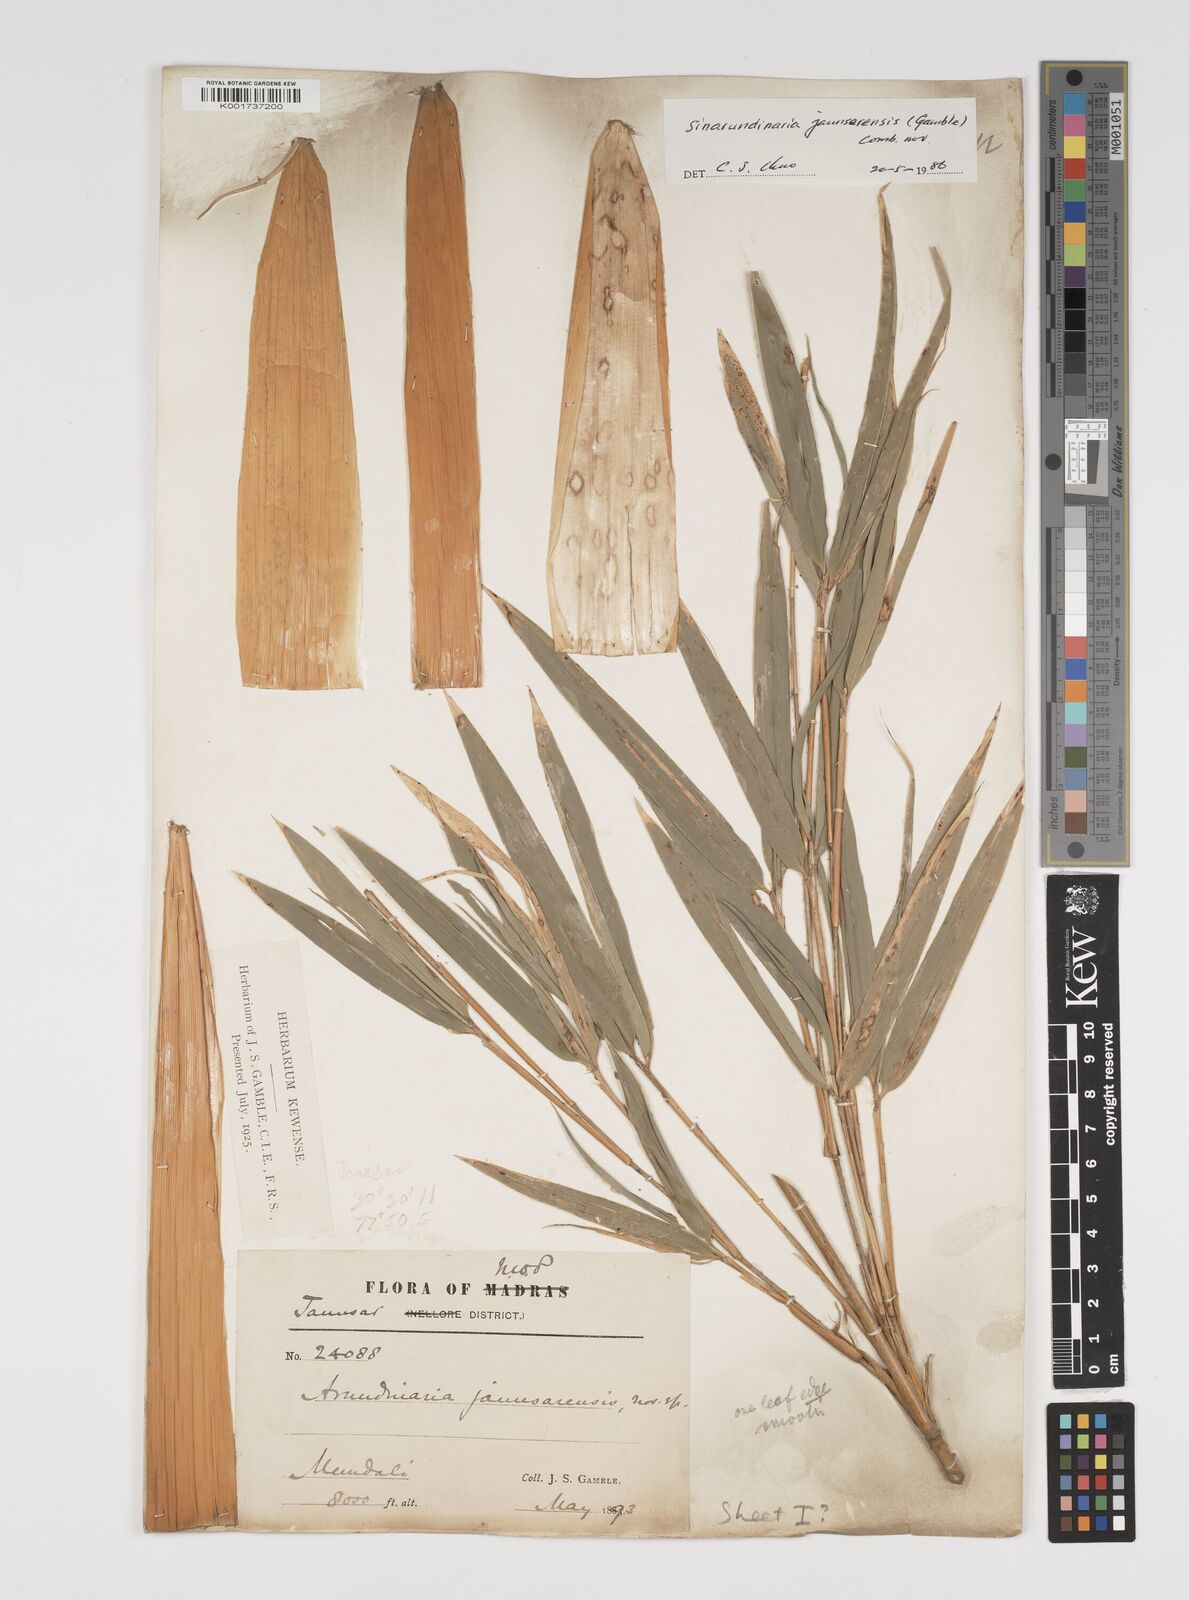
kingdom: Plantae
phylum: Tracheophyta
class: Liliopsida
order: Poales
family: Poaceae
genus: Yushania
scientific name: Yushania anceps
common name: Indian fountain-bamboo
